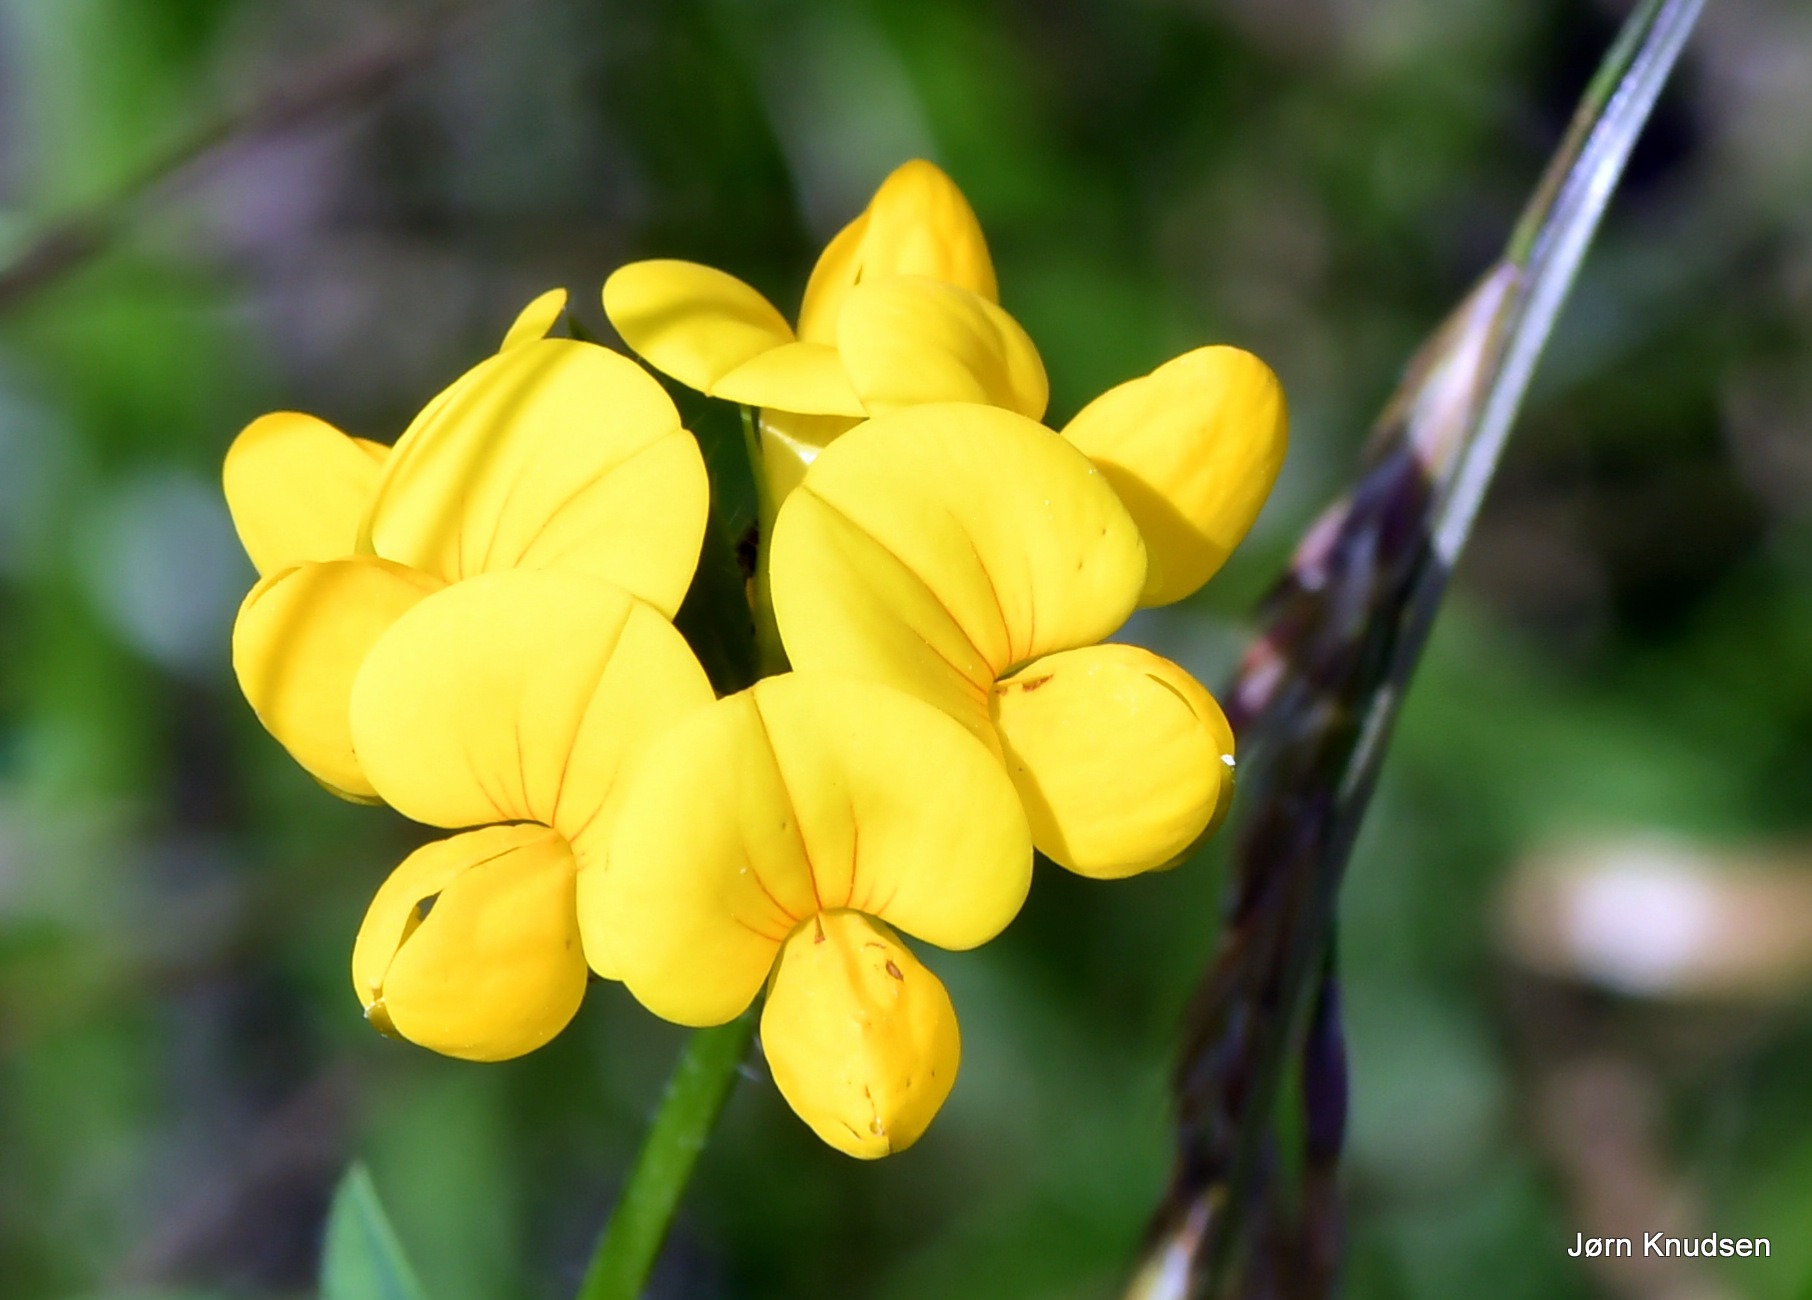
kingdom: Plantae
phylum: Tracheophyta
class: Magnoliopsida
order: Fabales
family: Fabaceae
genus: Lotus
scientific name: Lotus corniculatus
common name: Almindelig kællingetand
